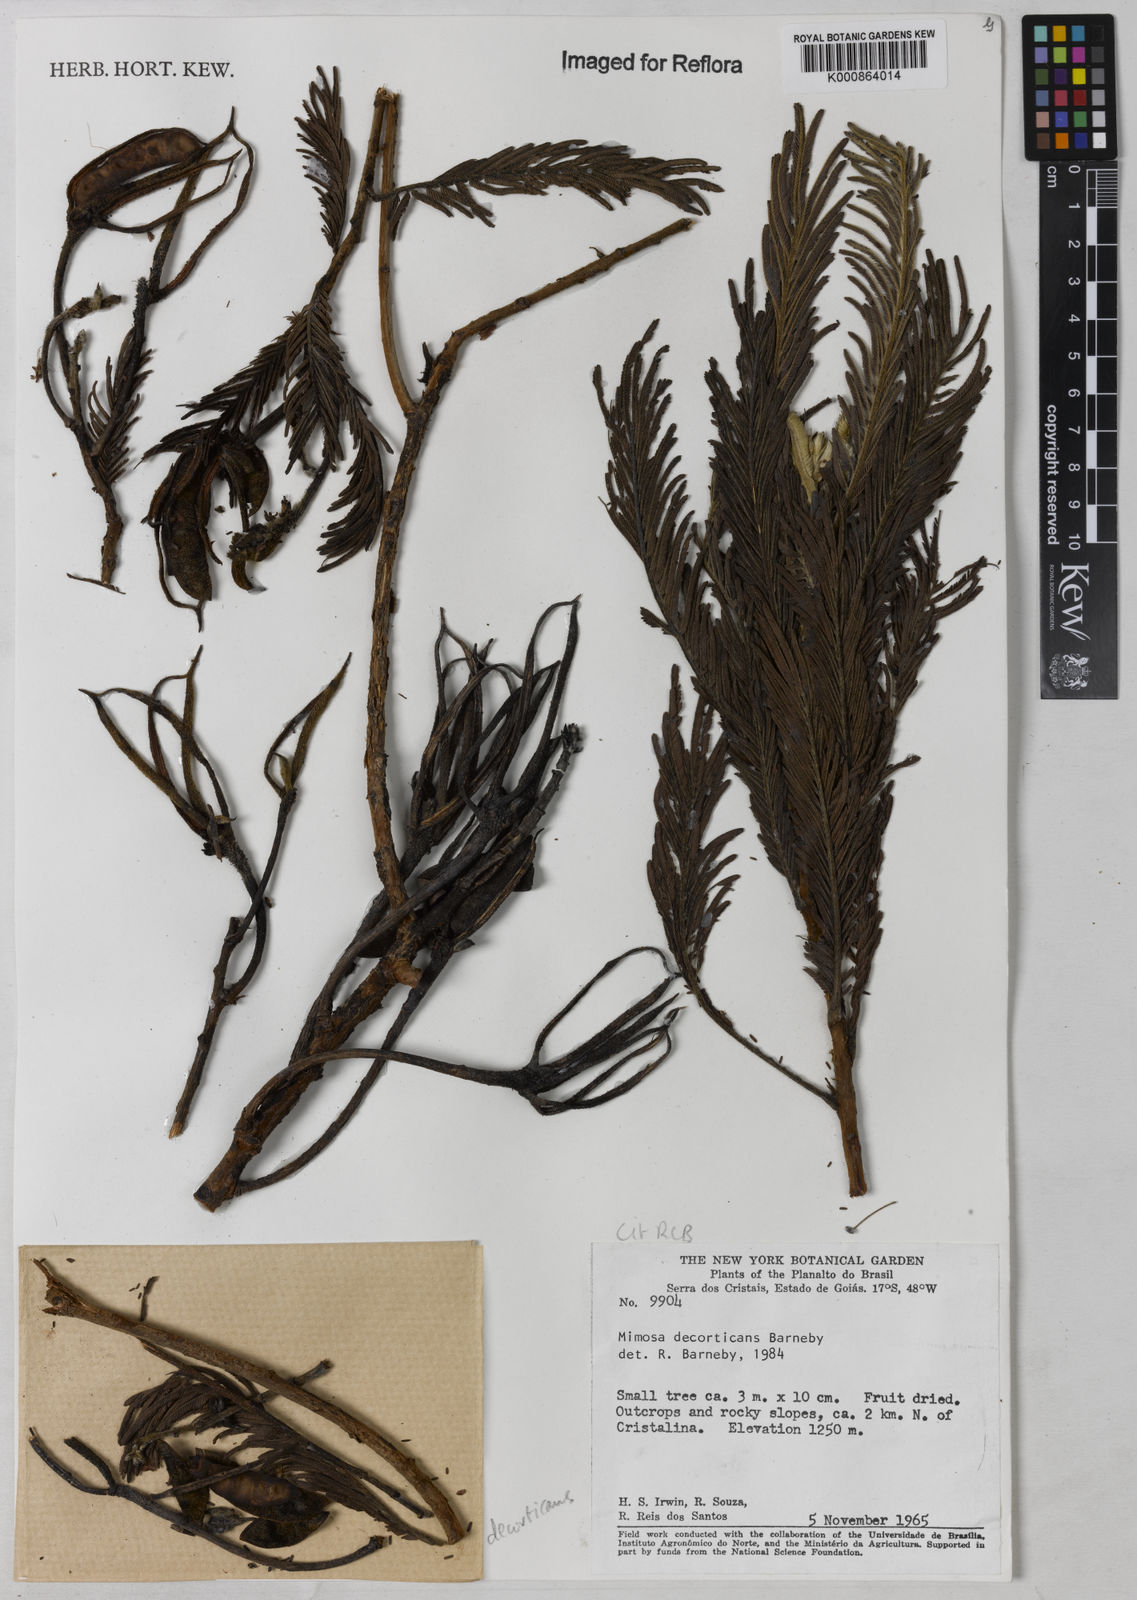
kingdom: Plantae
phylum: Tracheophyta
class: Magnoliopsida
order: Fabales
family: Fabaceae
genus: Mimosa
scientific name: Mimosa decorticans
